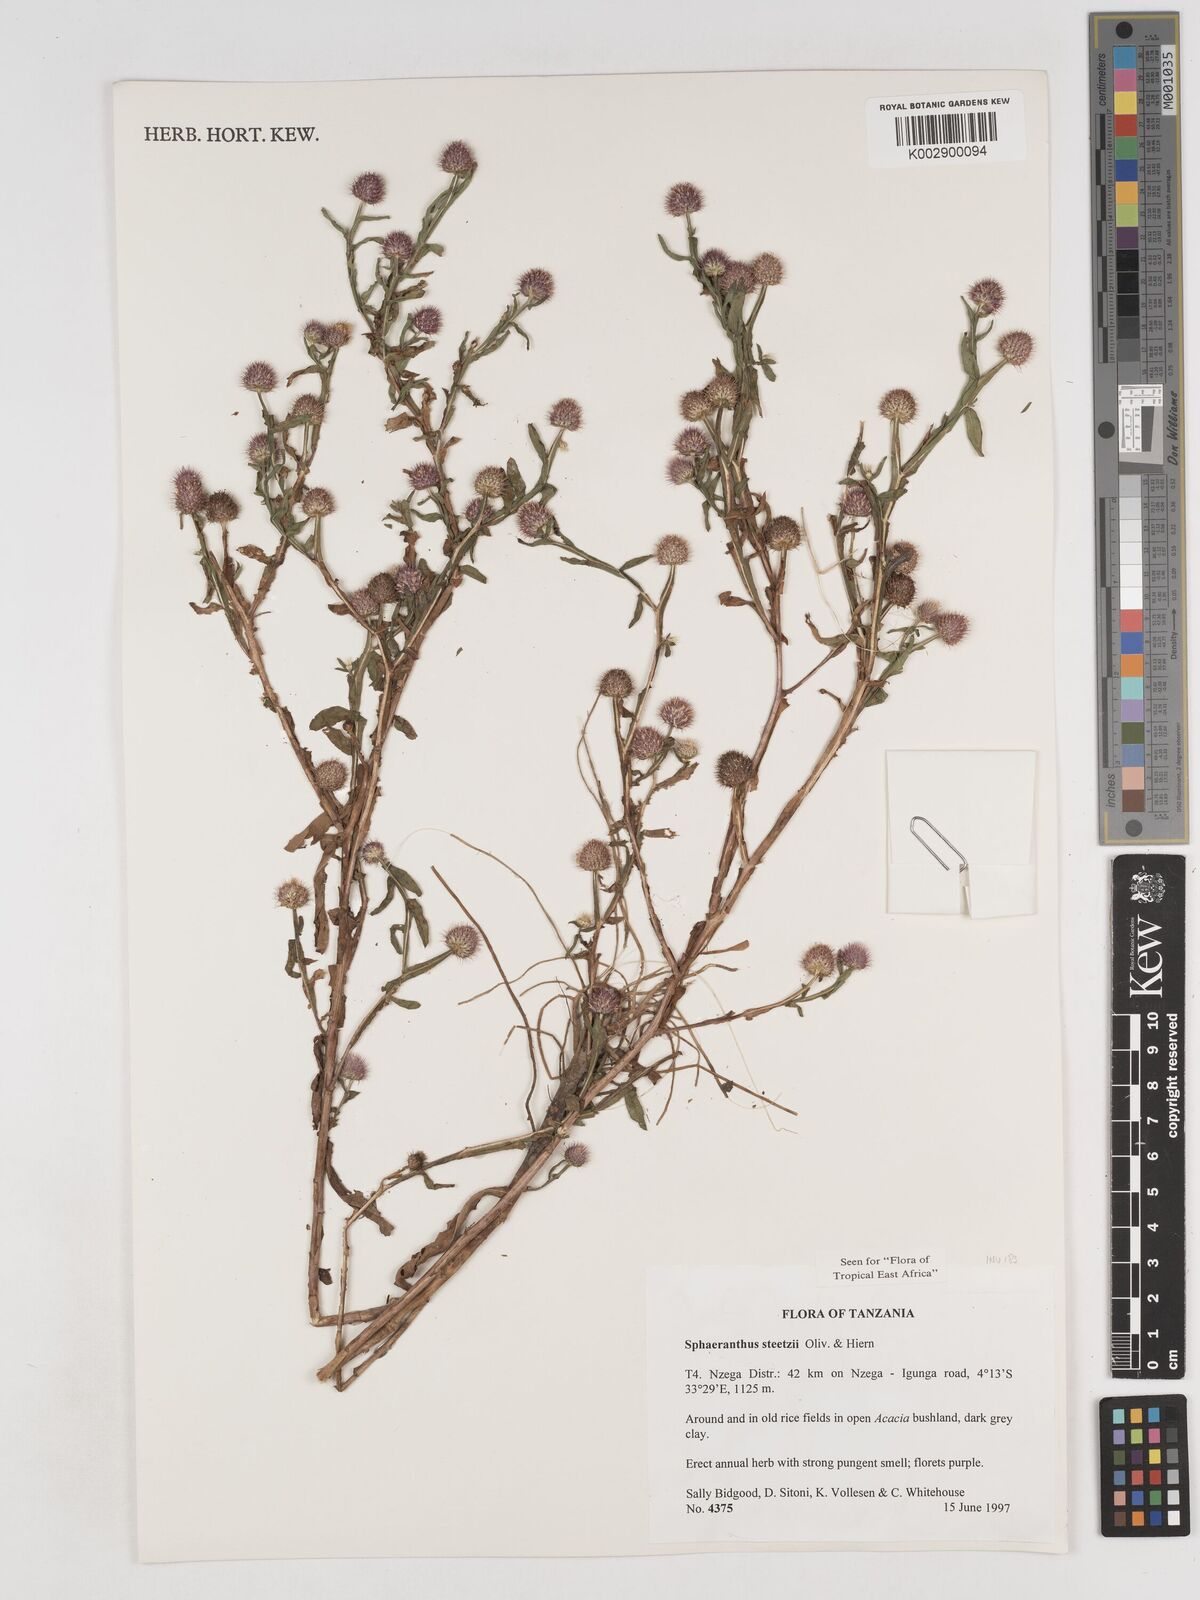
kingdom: Plantae
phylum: Tracheophyta
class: Magnoliopsida
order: Asterales
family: Asteraceae
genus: Sphaeranthus
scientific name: Sphaeranthus steetzii
